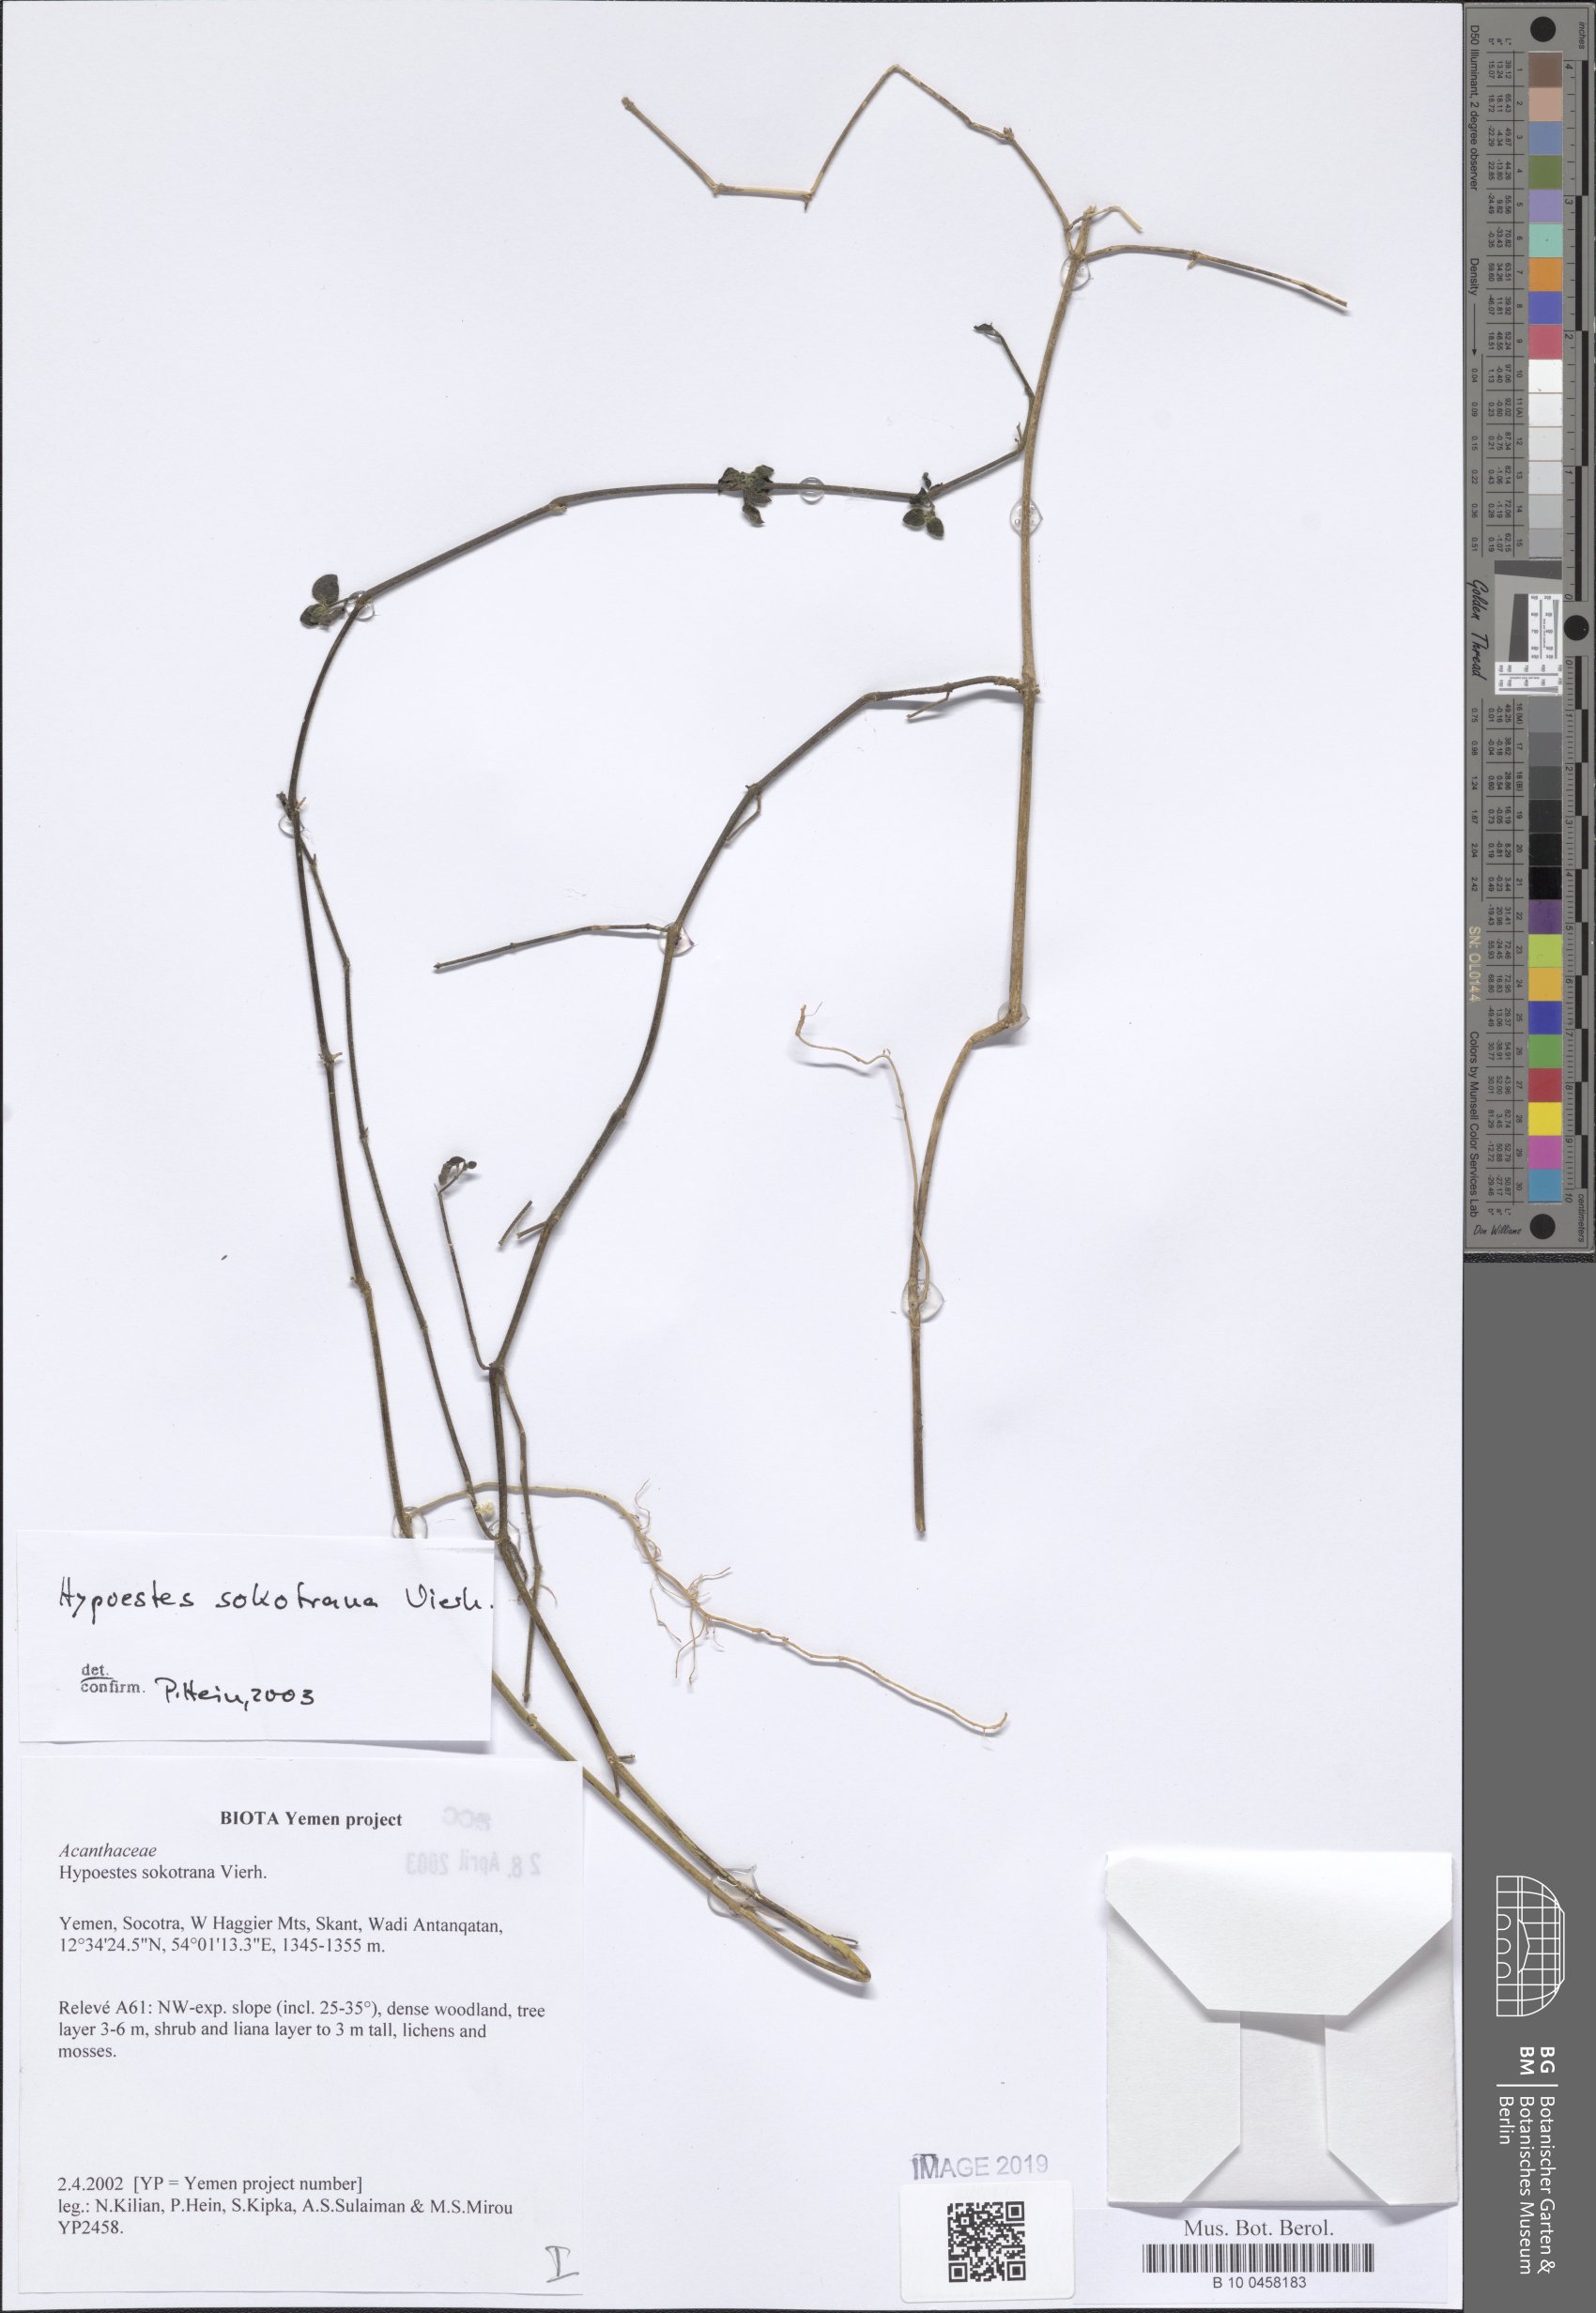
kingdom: Plantae
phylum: Tracheophyta
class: Magnoliopsida
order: Lamiales
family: Acanthaceae
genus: Hypoestes
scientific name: Hypoestes sokotrana
